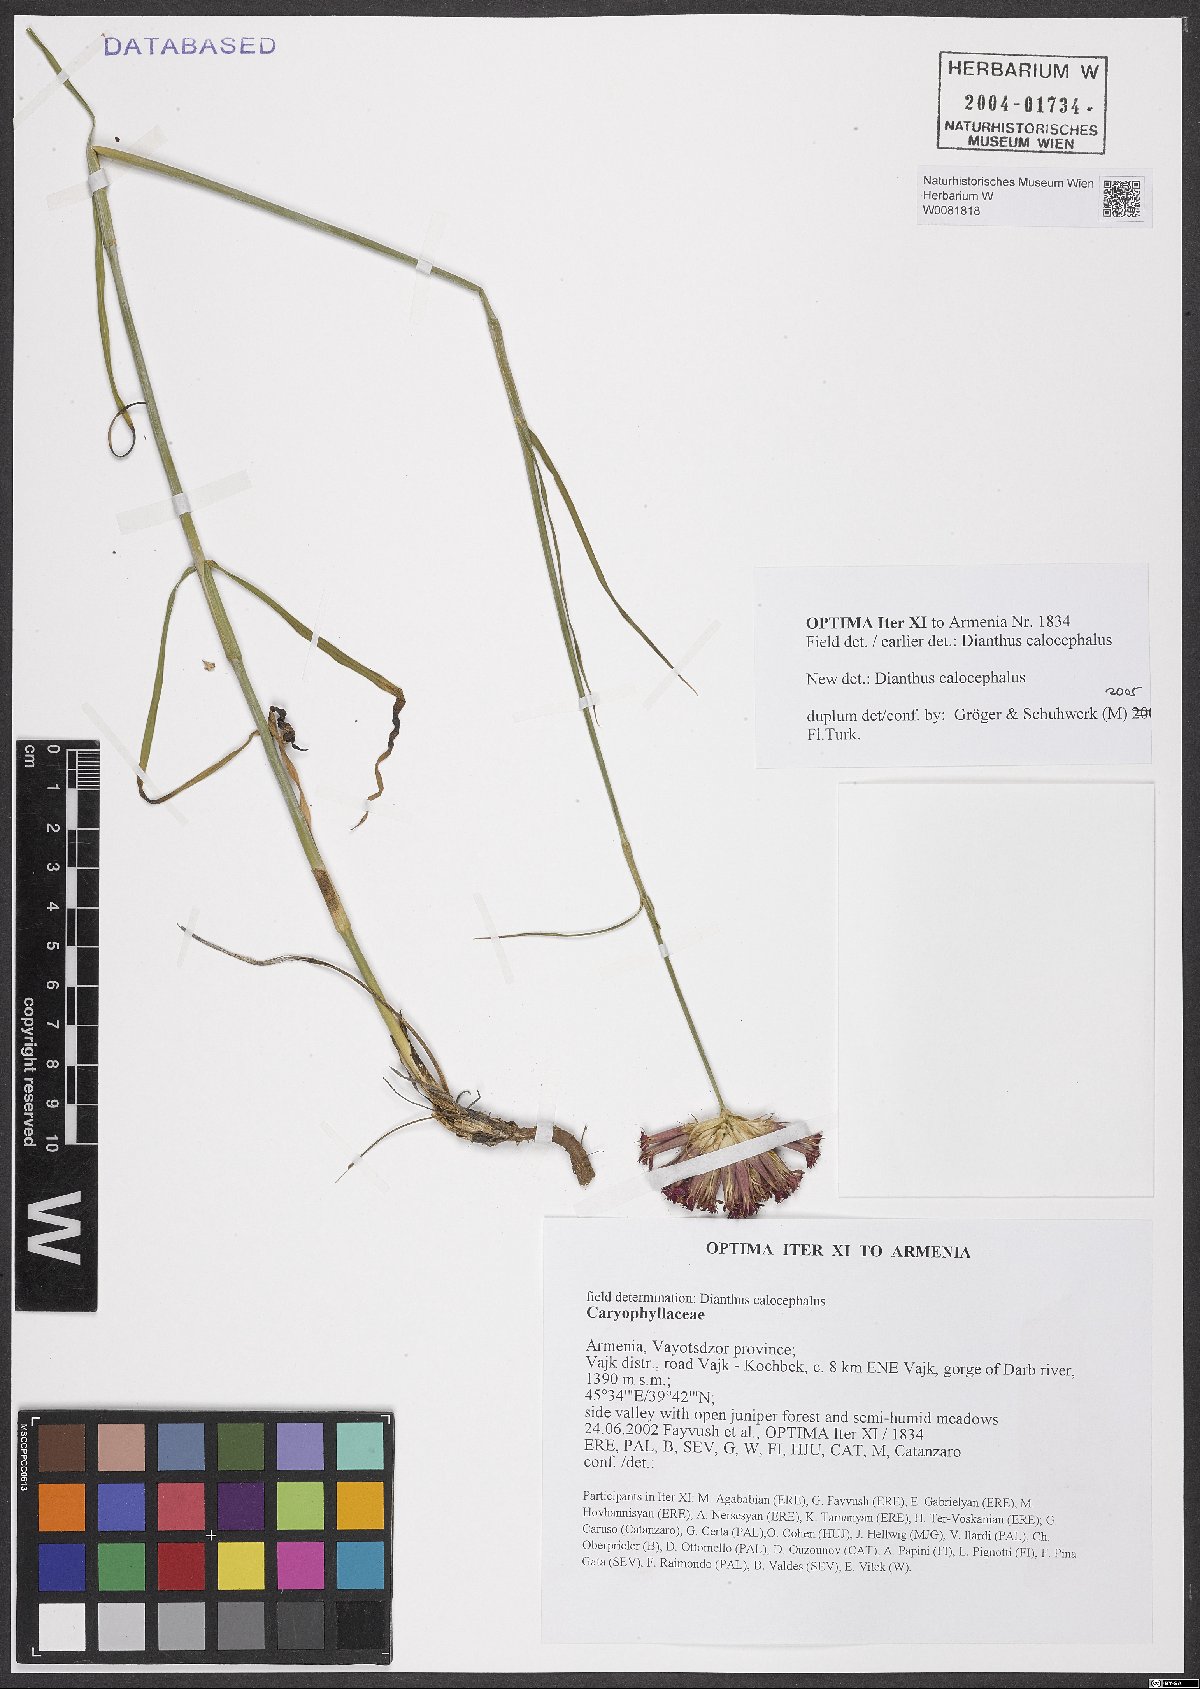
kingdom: Plantae
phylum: Tracheophyta
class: Magnoliopsida
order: Caryophyllales
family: Caryophyllaceae
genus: Dianthus
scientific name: Dianthus cruentus
